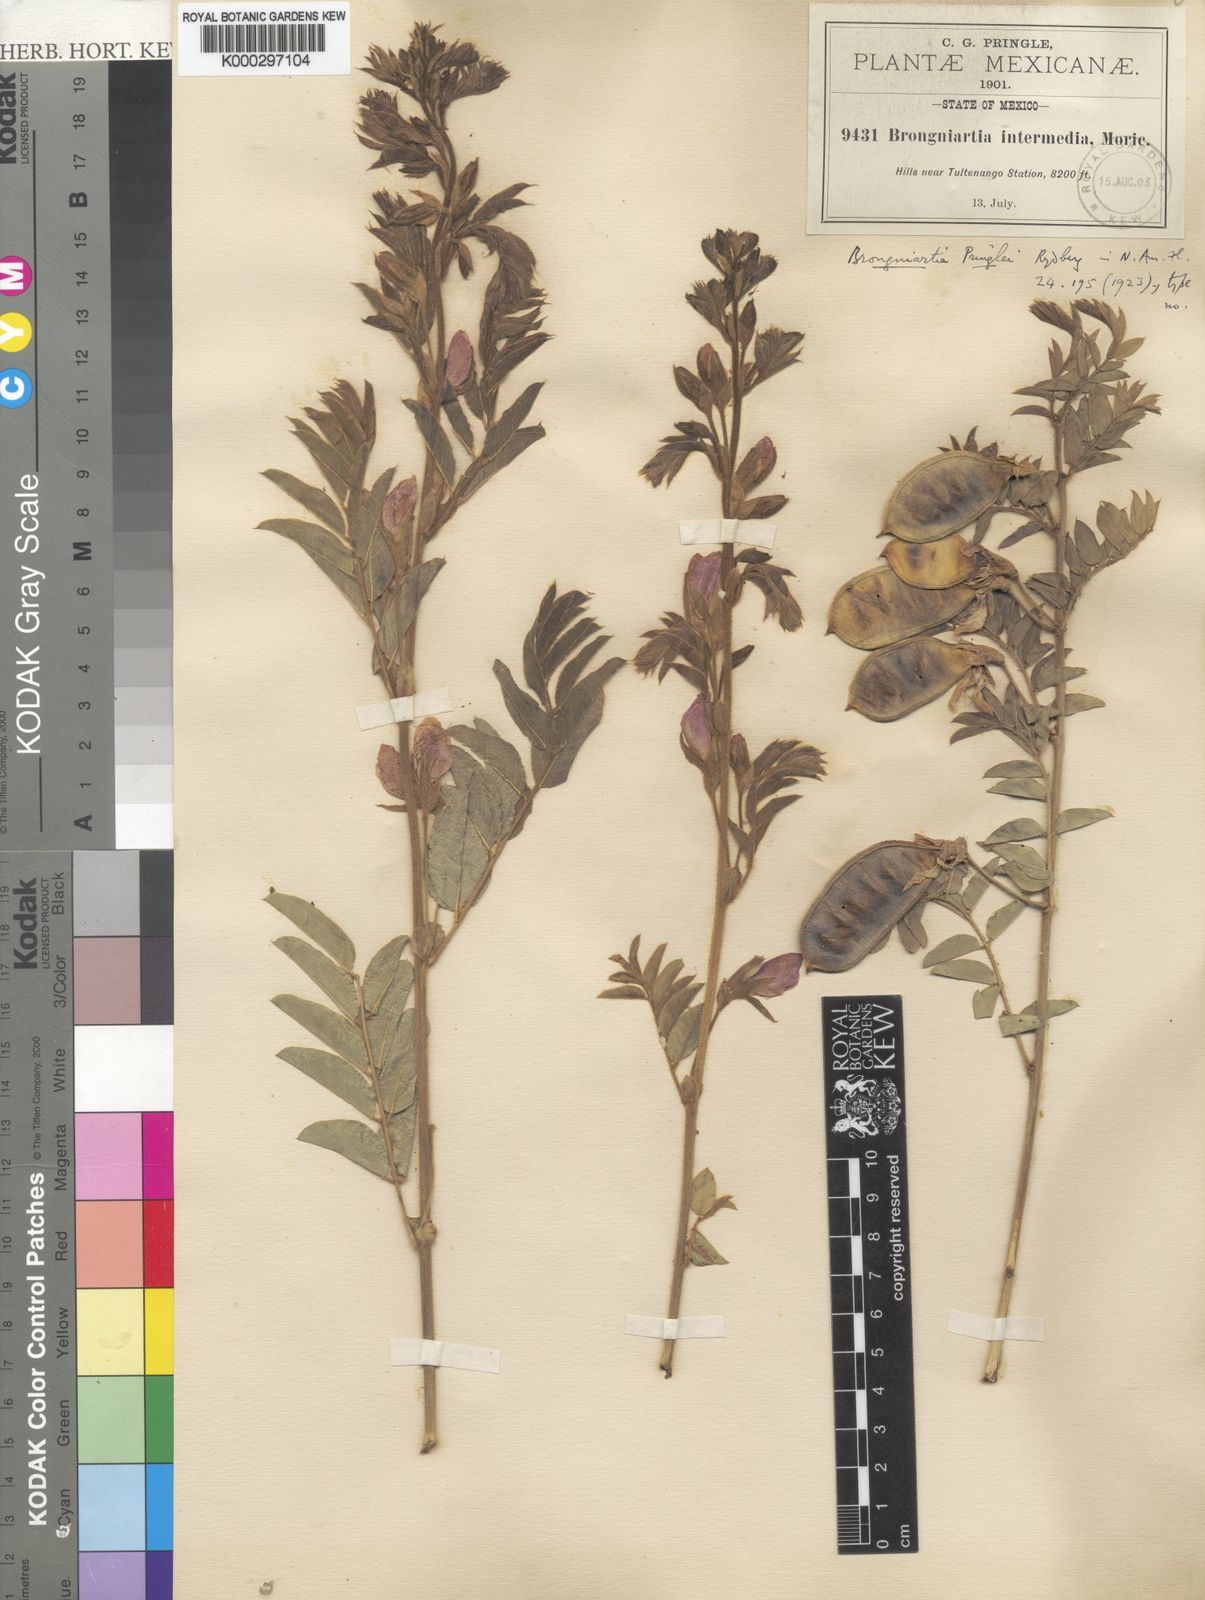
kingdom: Plantae
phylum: Tracheophyta
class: Magnoliopsida
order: Fabales
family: Fabaceae
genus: Brongniartia
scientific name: Brongniartia pringlei
